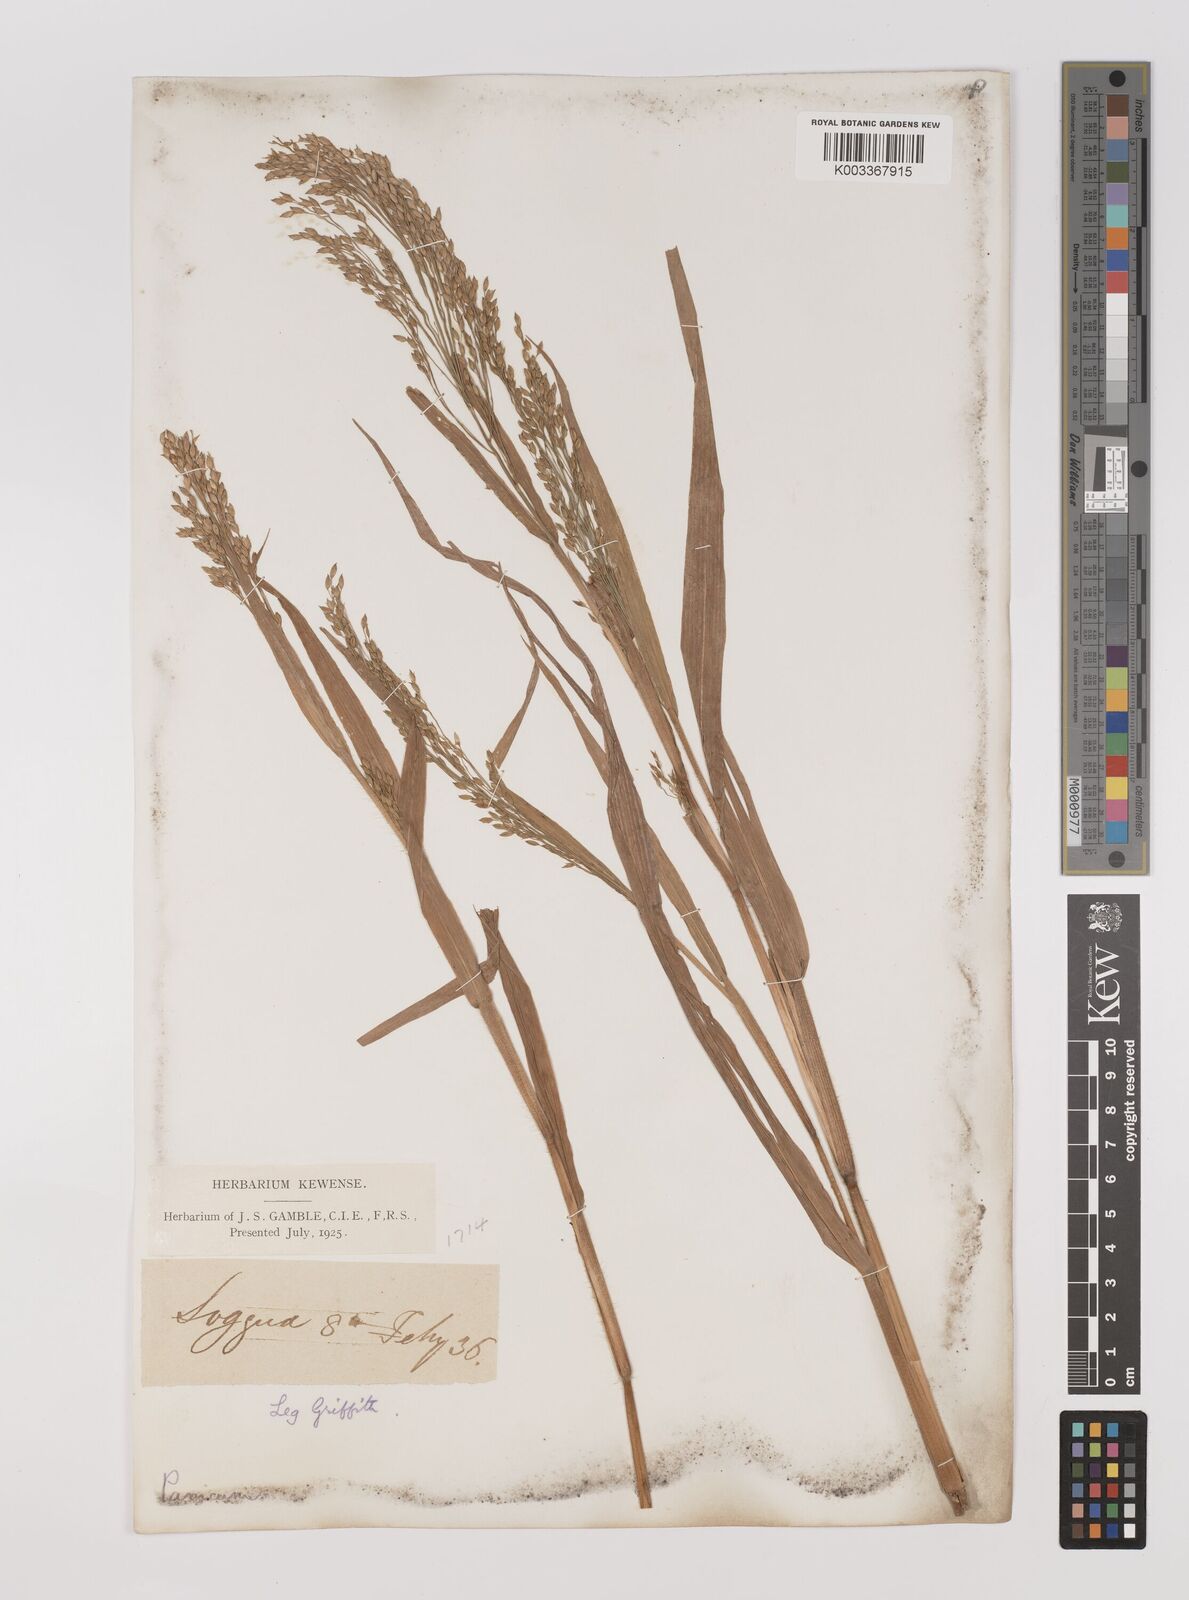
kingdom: Plantae
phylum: Tracheophyta
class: Liliopsida
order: Poales
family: Poaceae
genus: Panicum
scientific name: Panicum miliaceum
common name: Common millet
